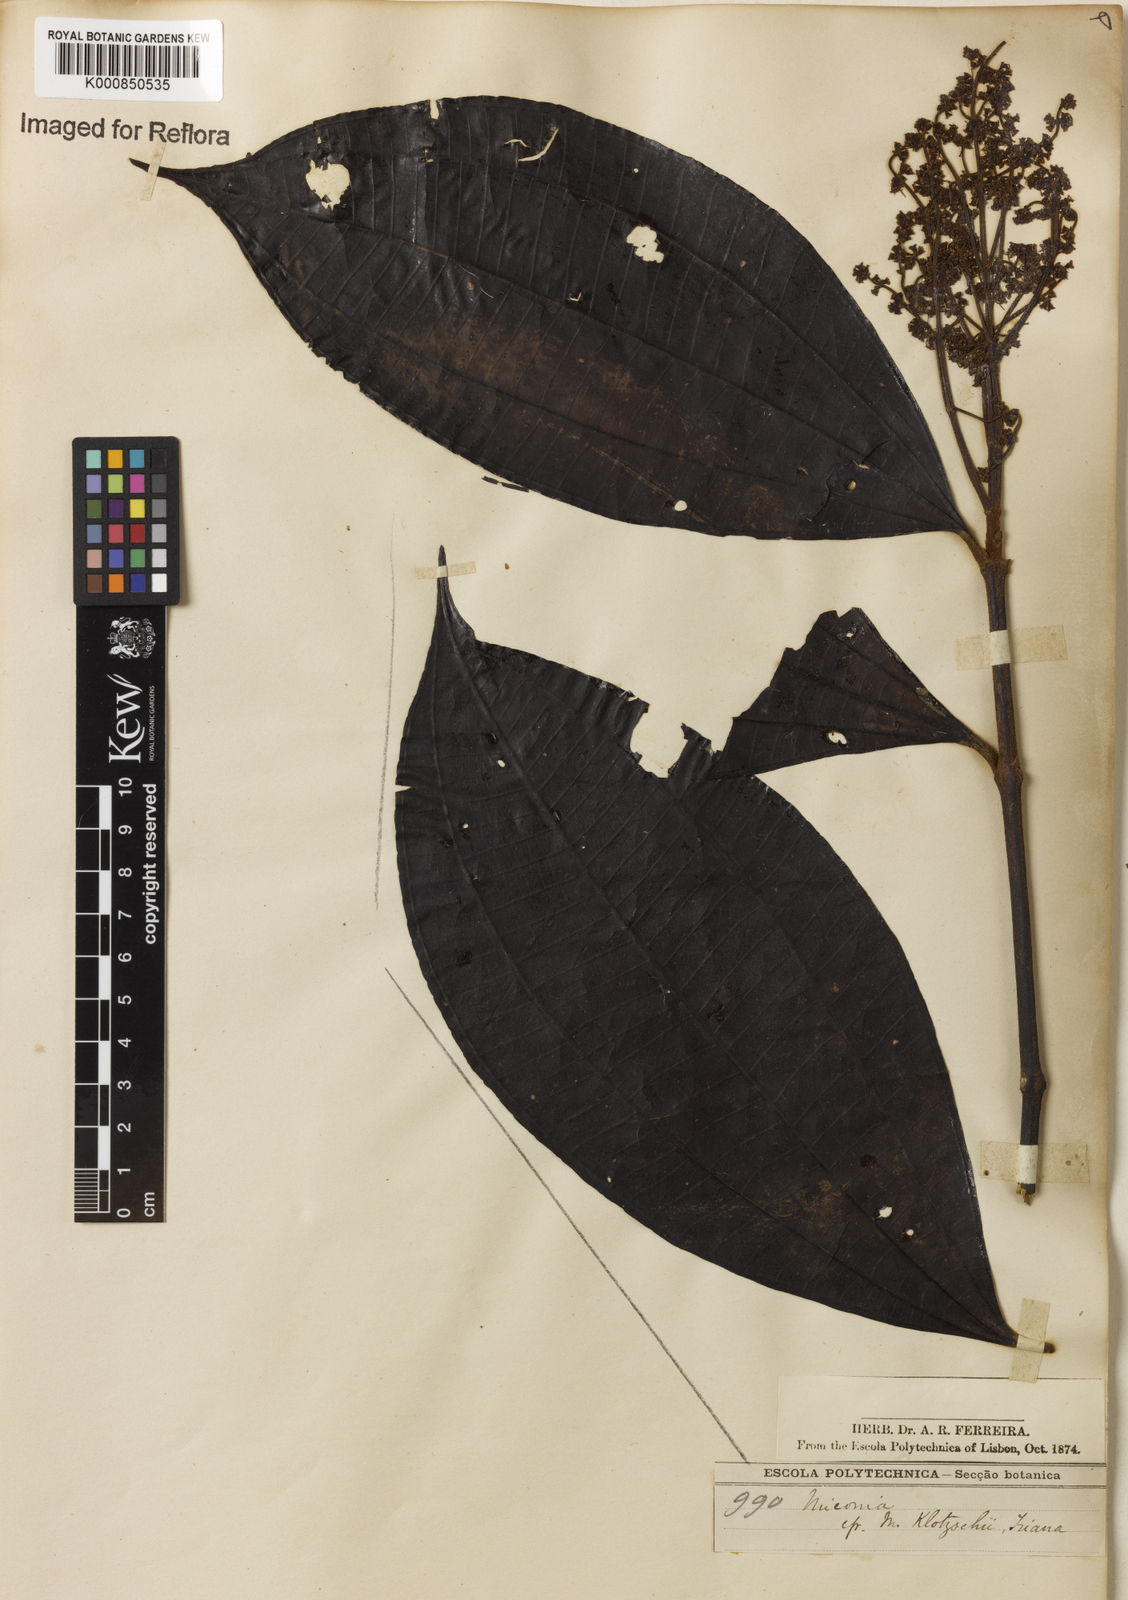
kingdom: Plantae
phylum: Tracheophyta
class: Magnoliopsida
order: Myrtales
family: Melastomataceae
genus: Miconia
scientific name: Miconia
